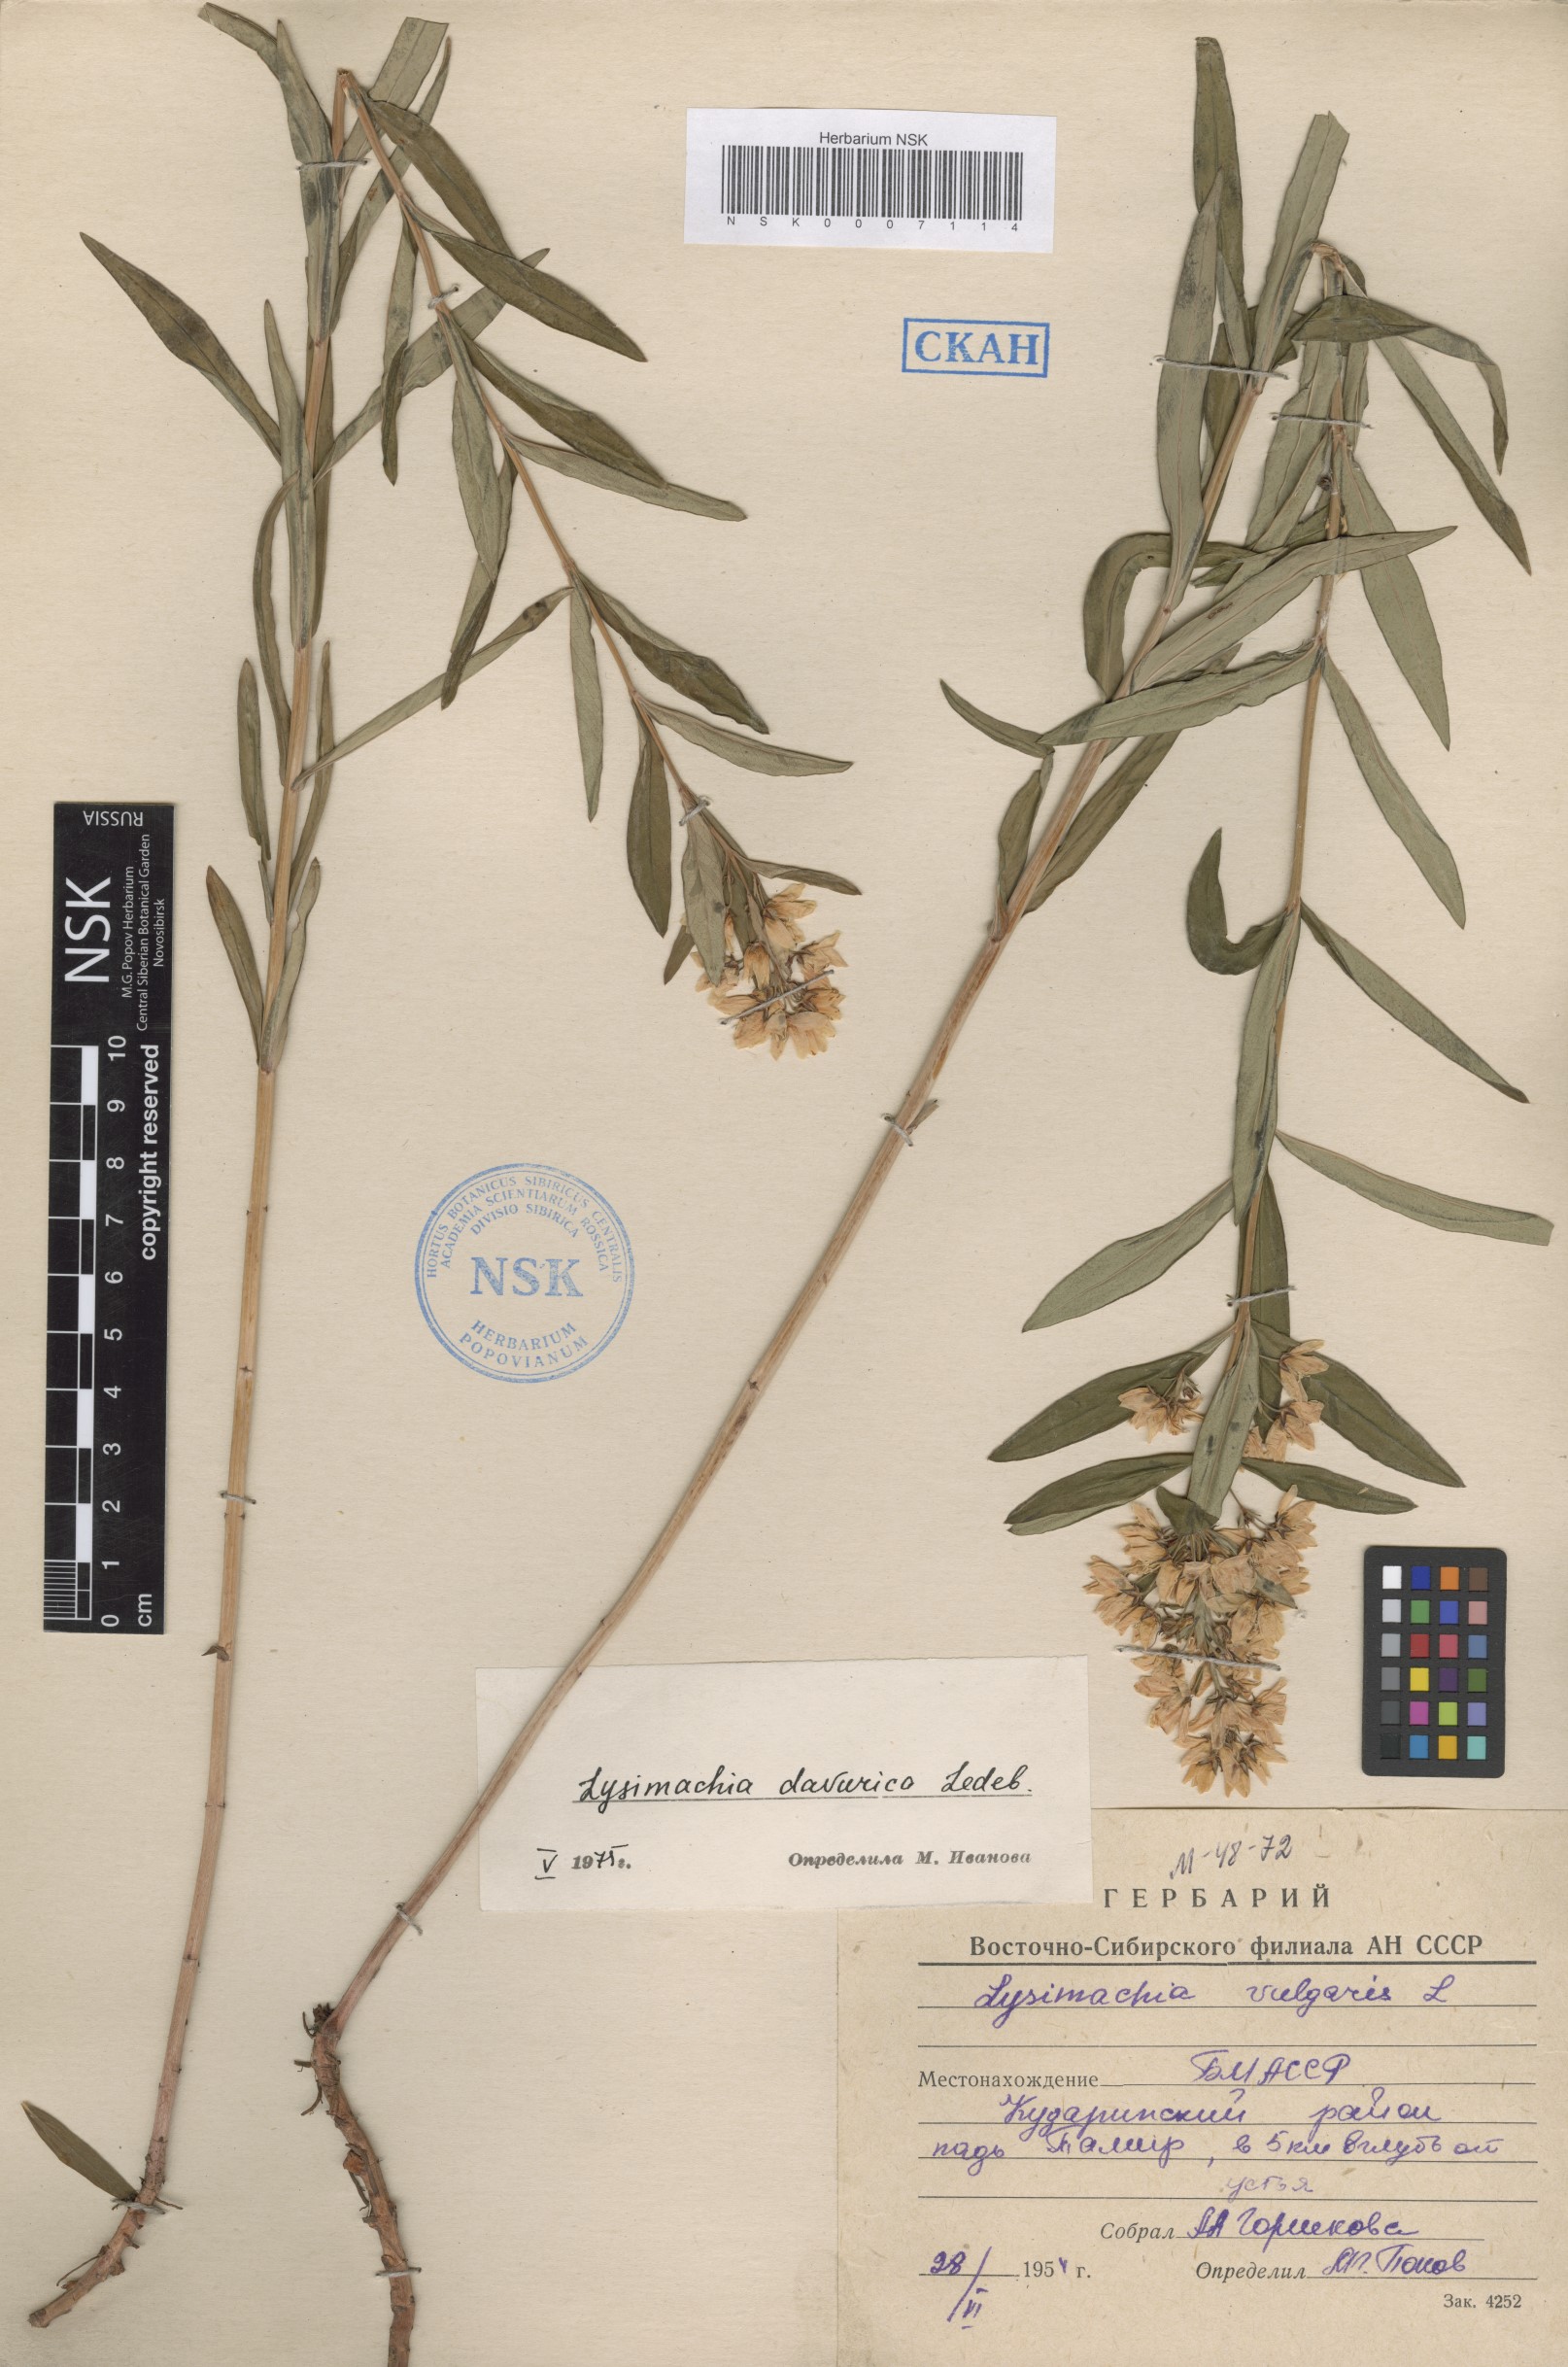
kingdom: Plantae
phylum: Tracheophyta
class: Magnoliopsida
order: Ericales
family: Primulaceae
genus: Lysimachia
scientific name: Lysimachia davurica
